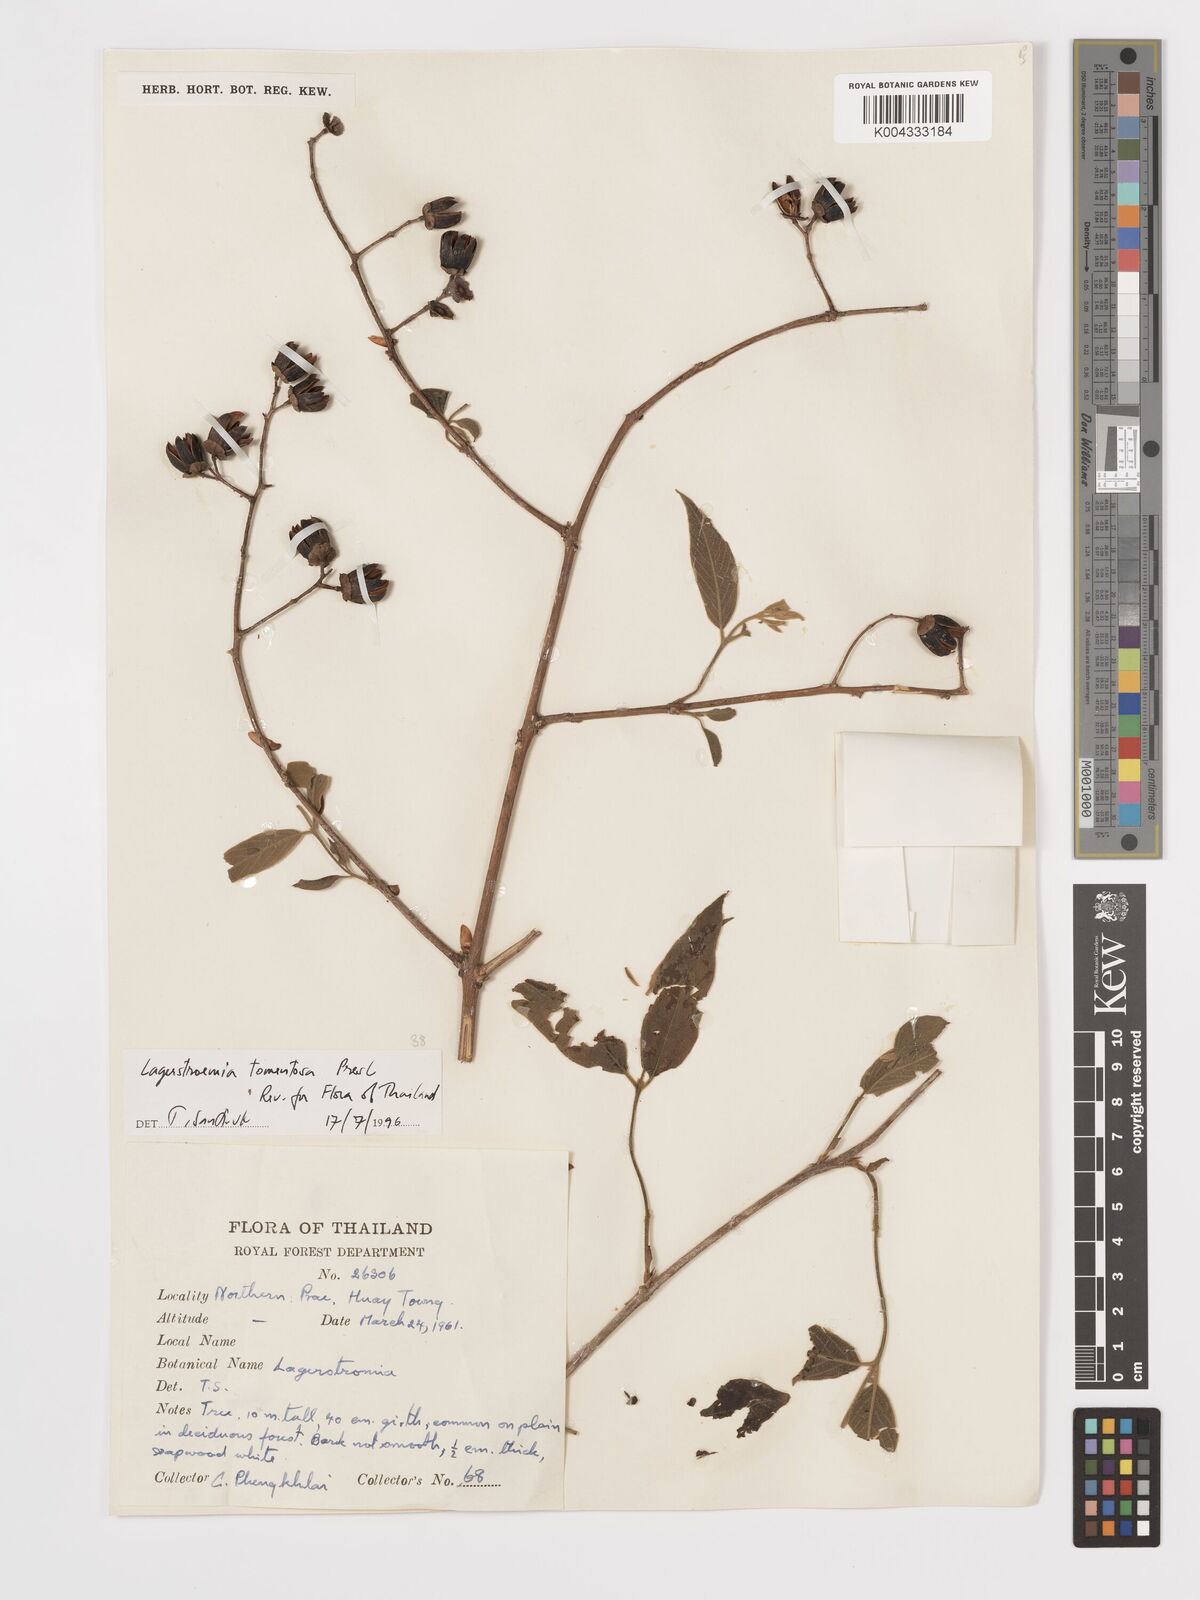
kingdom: Plantae
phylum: Tracheophyta
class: Magnoliopsida
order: Myrtales
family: Lythraceae
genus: Lagerstroemia
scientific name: Lagerstroemia tomentosa
